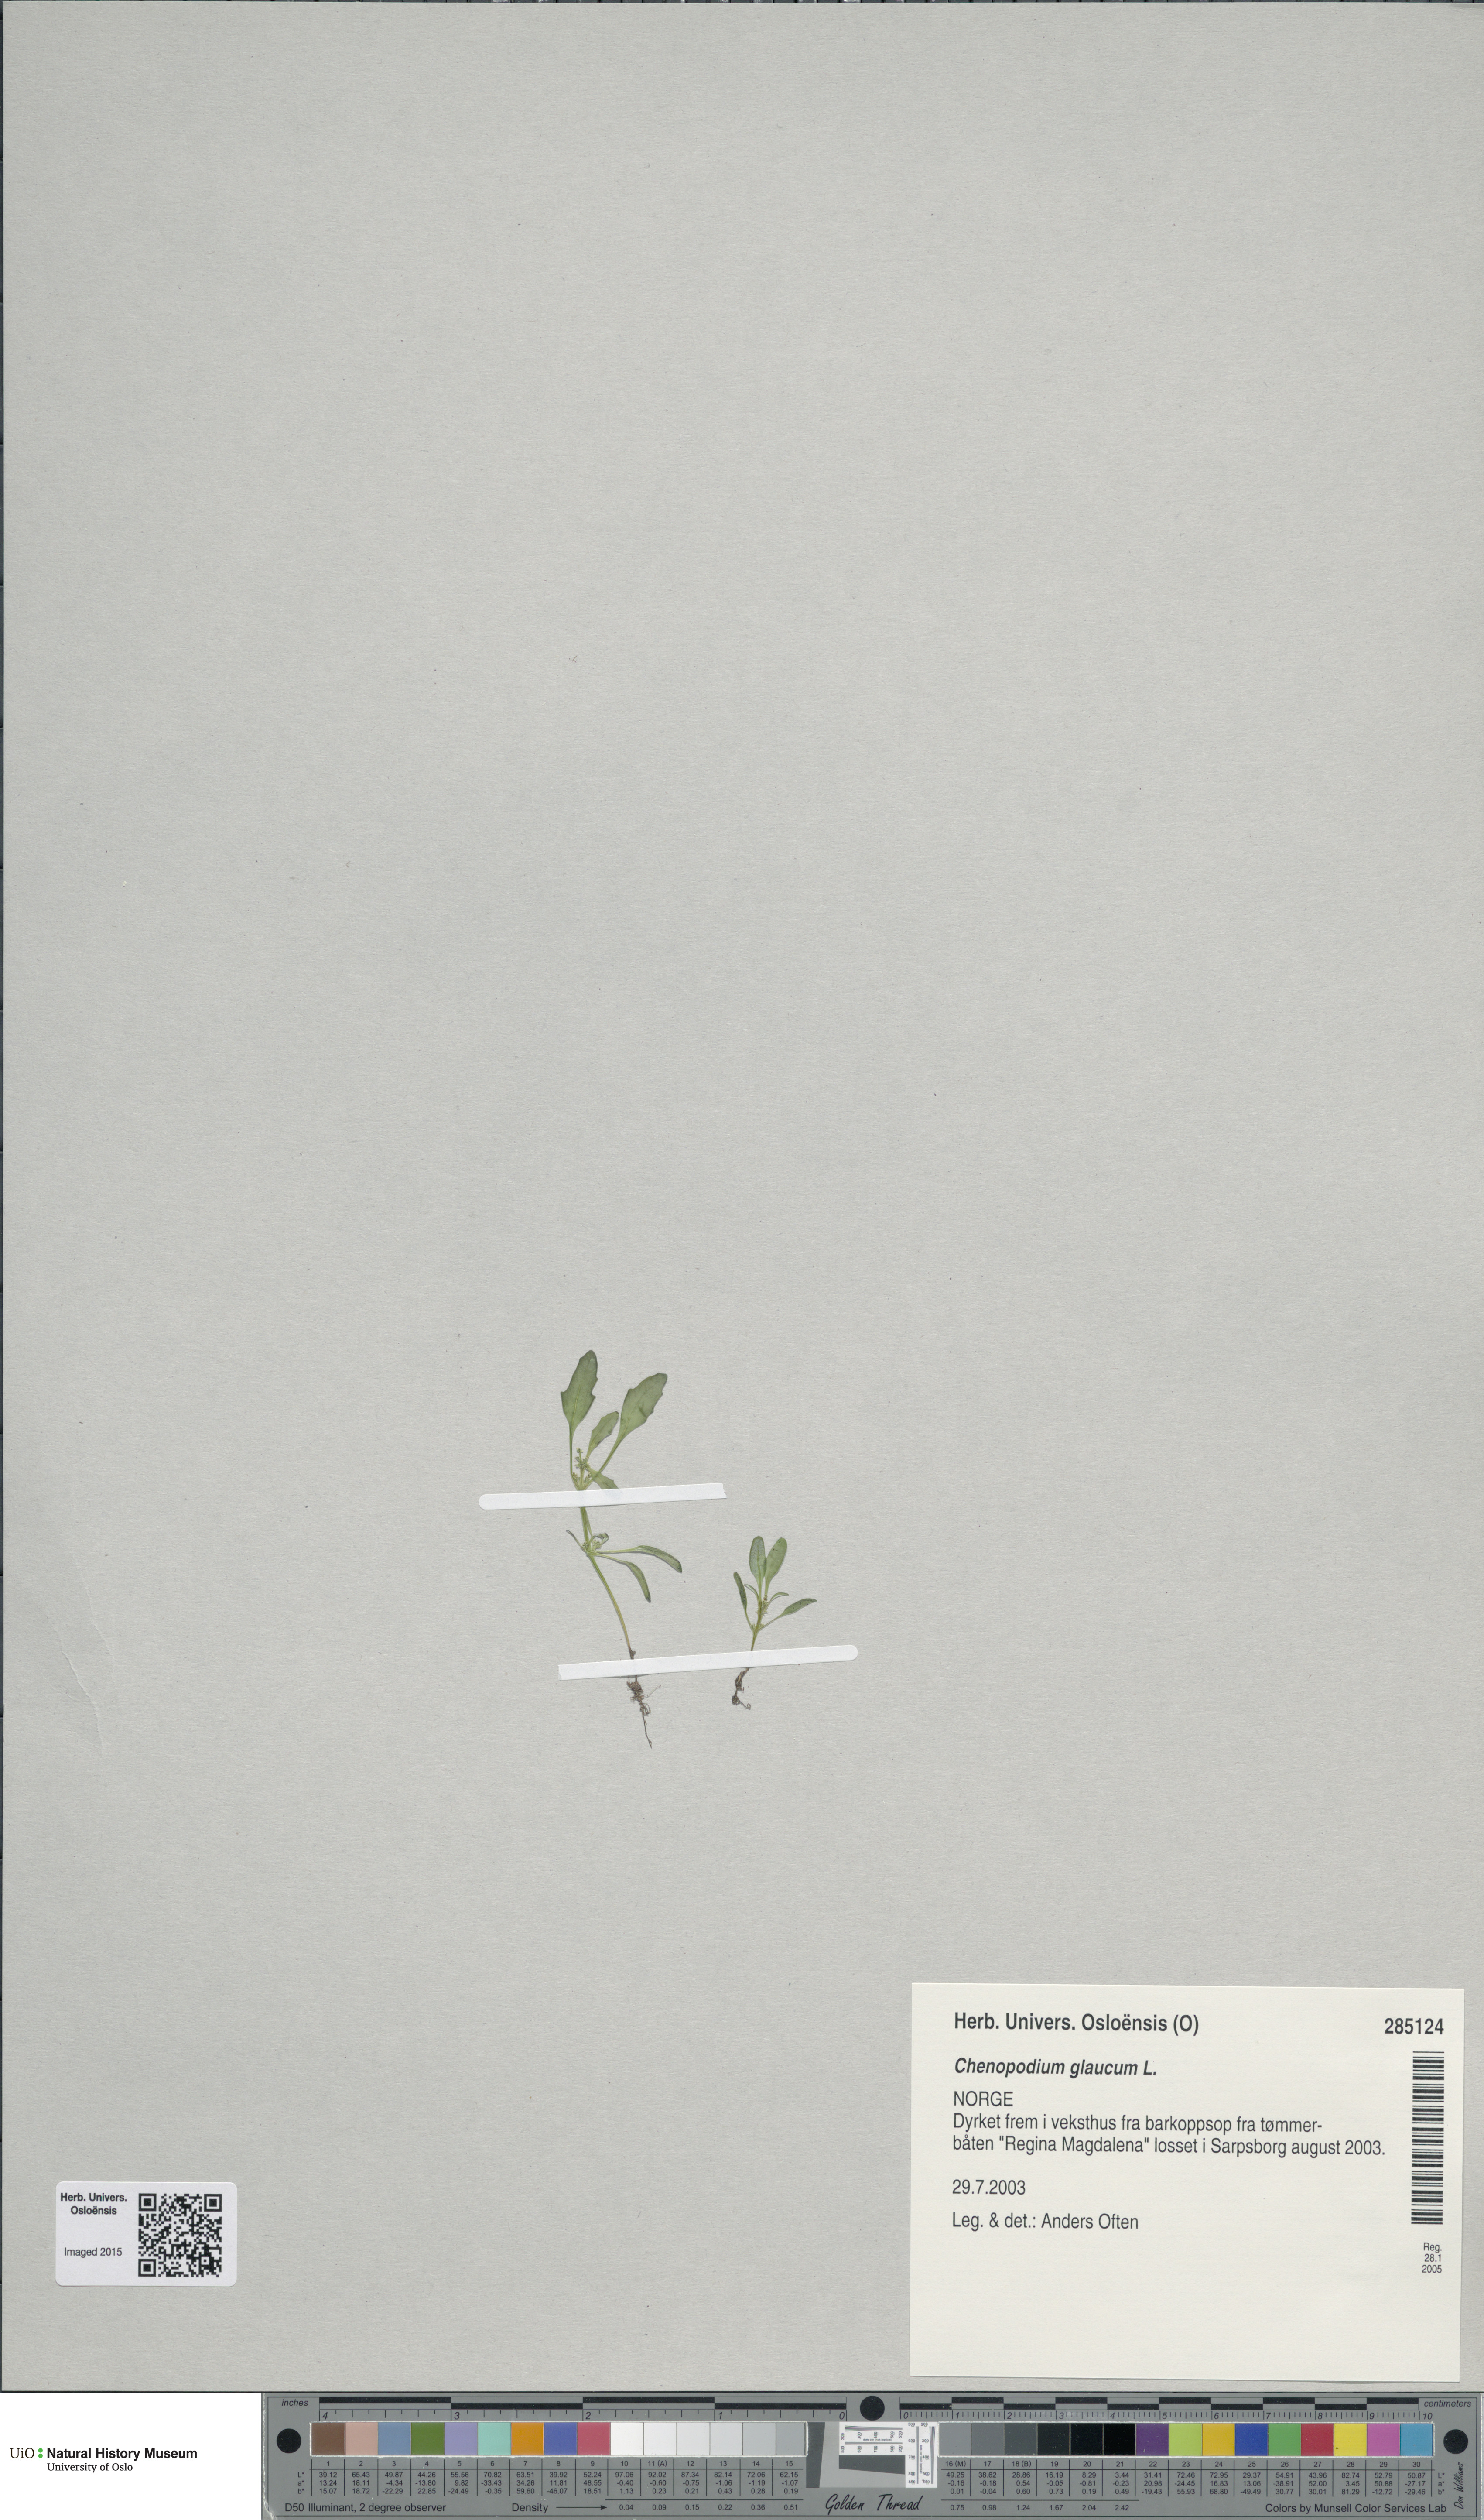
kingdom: Plantae
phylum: Tracheophyta
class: Magnoliopsida
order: Caryophyllales
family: Amaranthaceae
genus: Oxybasis
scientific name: Oxybasis glauca
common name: Glaucous goosefoot
